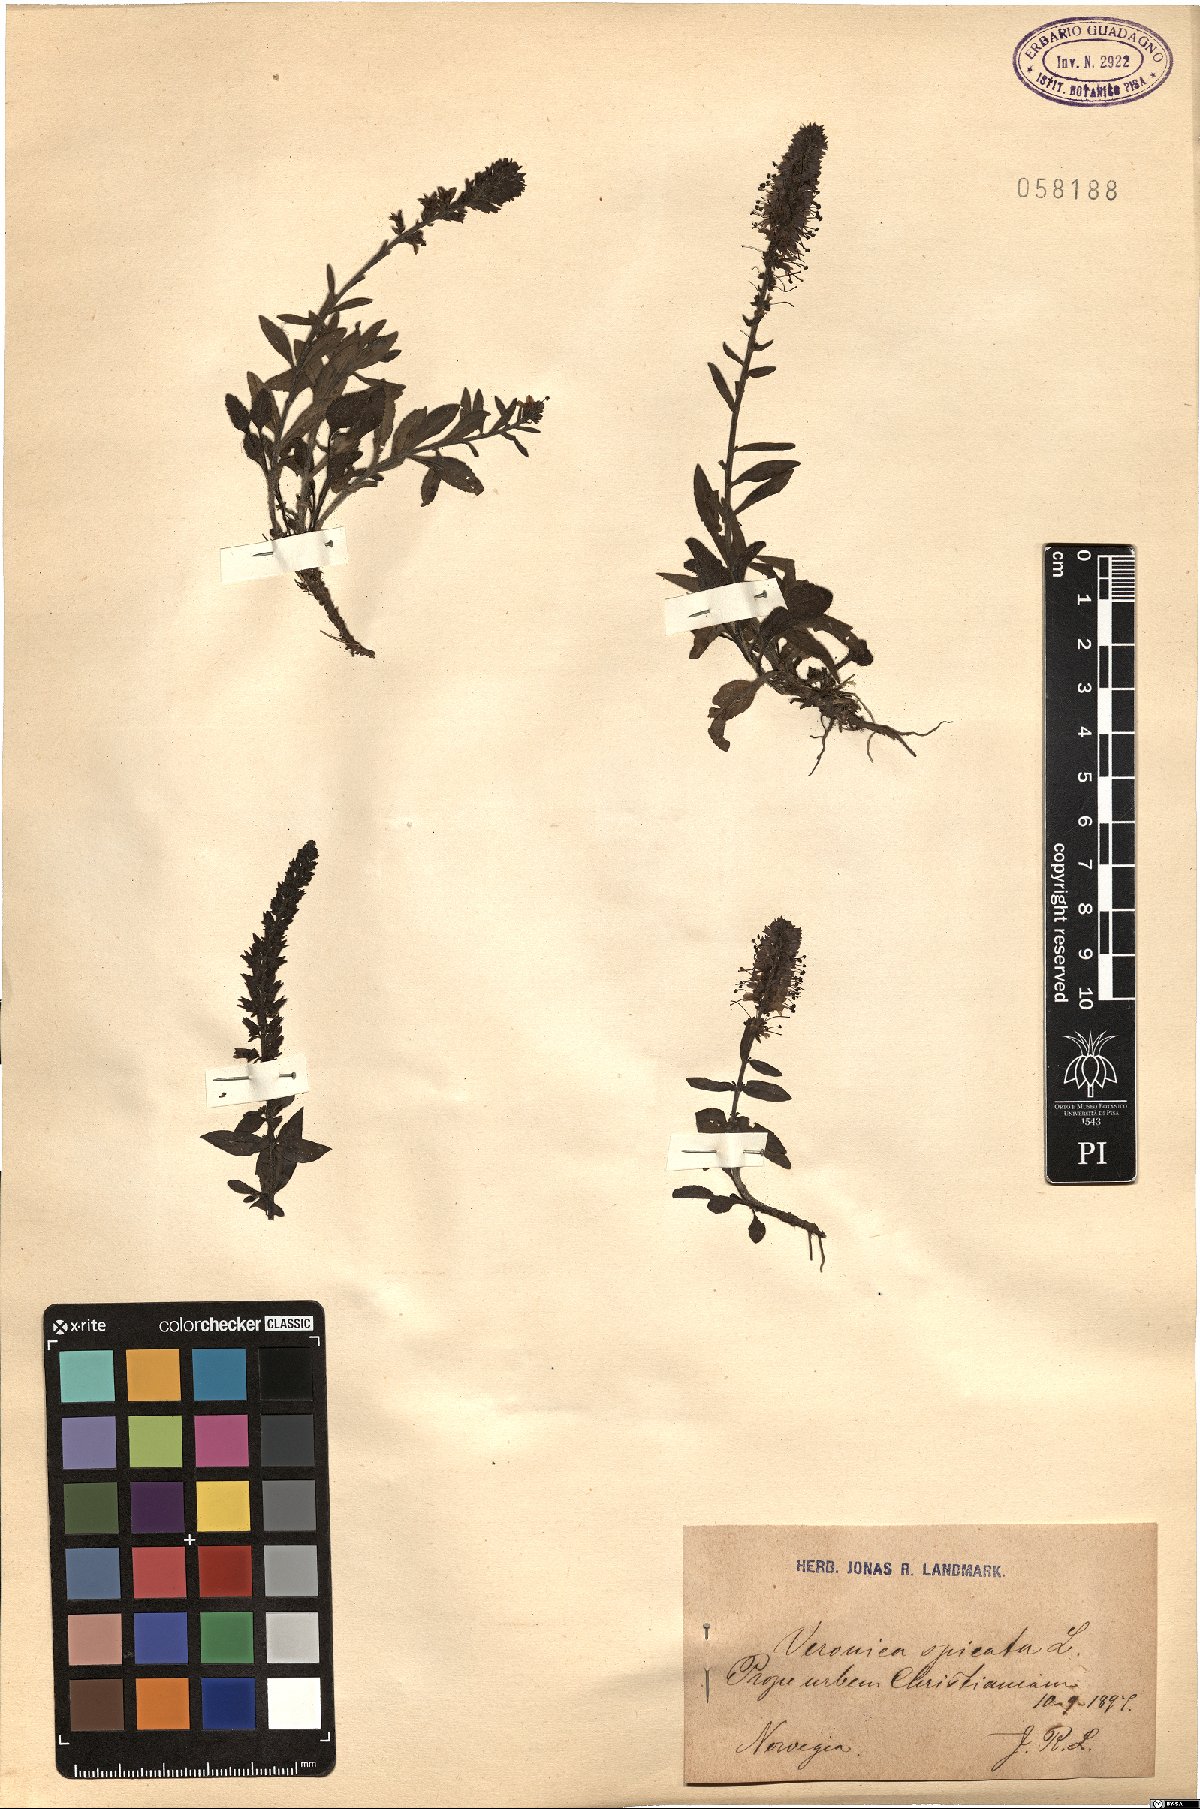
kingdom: Plantae
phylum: Tracheophyta
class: Magnoliopsida
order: Lamiales
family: Plantaginaceae
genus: Veronica
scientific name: Veronica spicata
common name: Spiked speedwell
